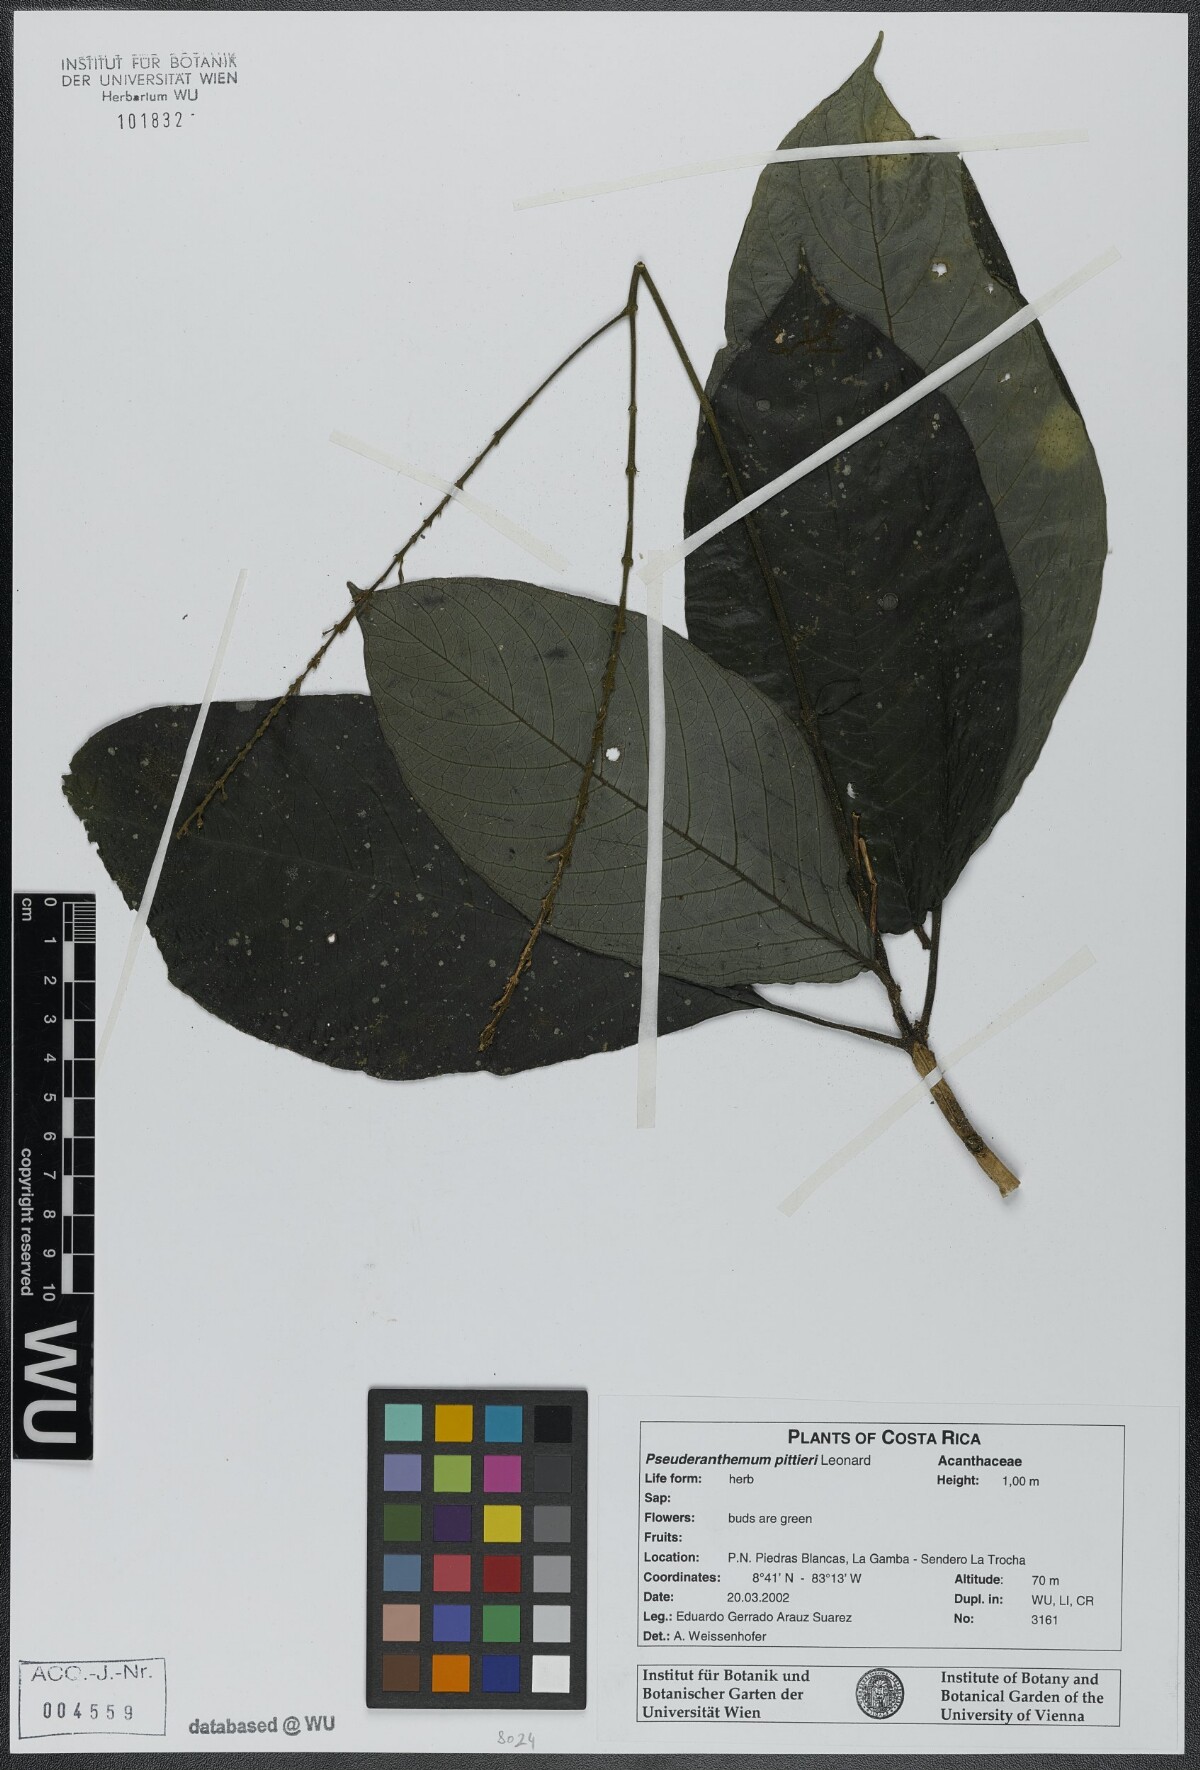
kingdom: Plantae
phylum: Tracheophyta
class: Magnoliopsida
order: Lamiales
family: Acanthaceae
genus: Pseuderanthemum
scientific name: Pseuderanthemum pittieri
